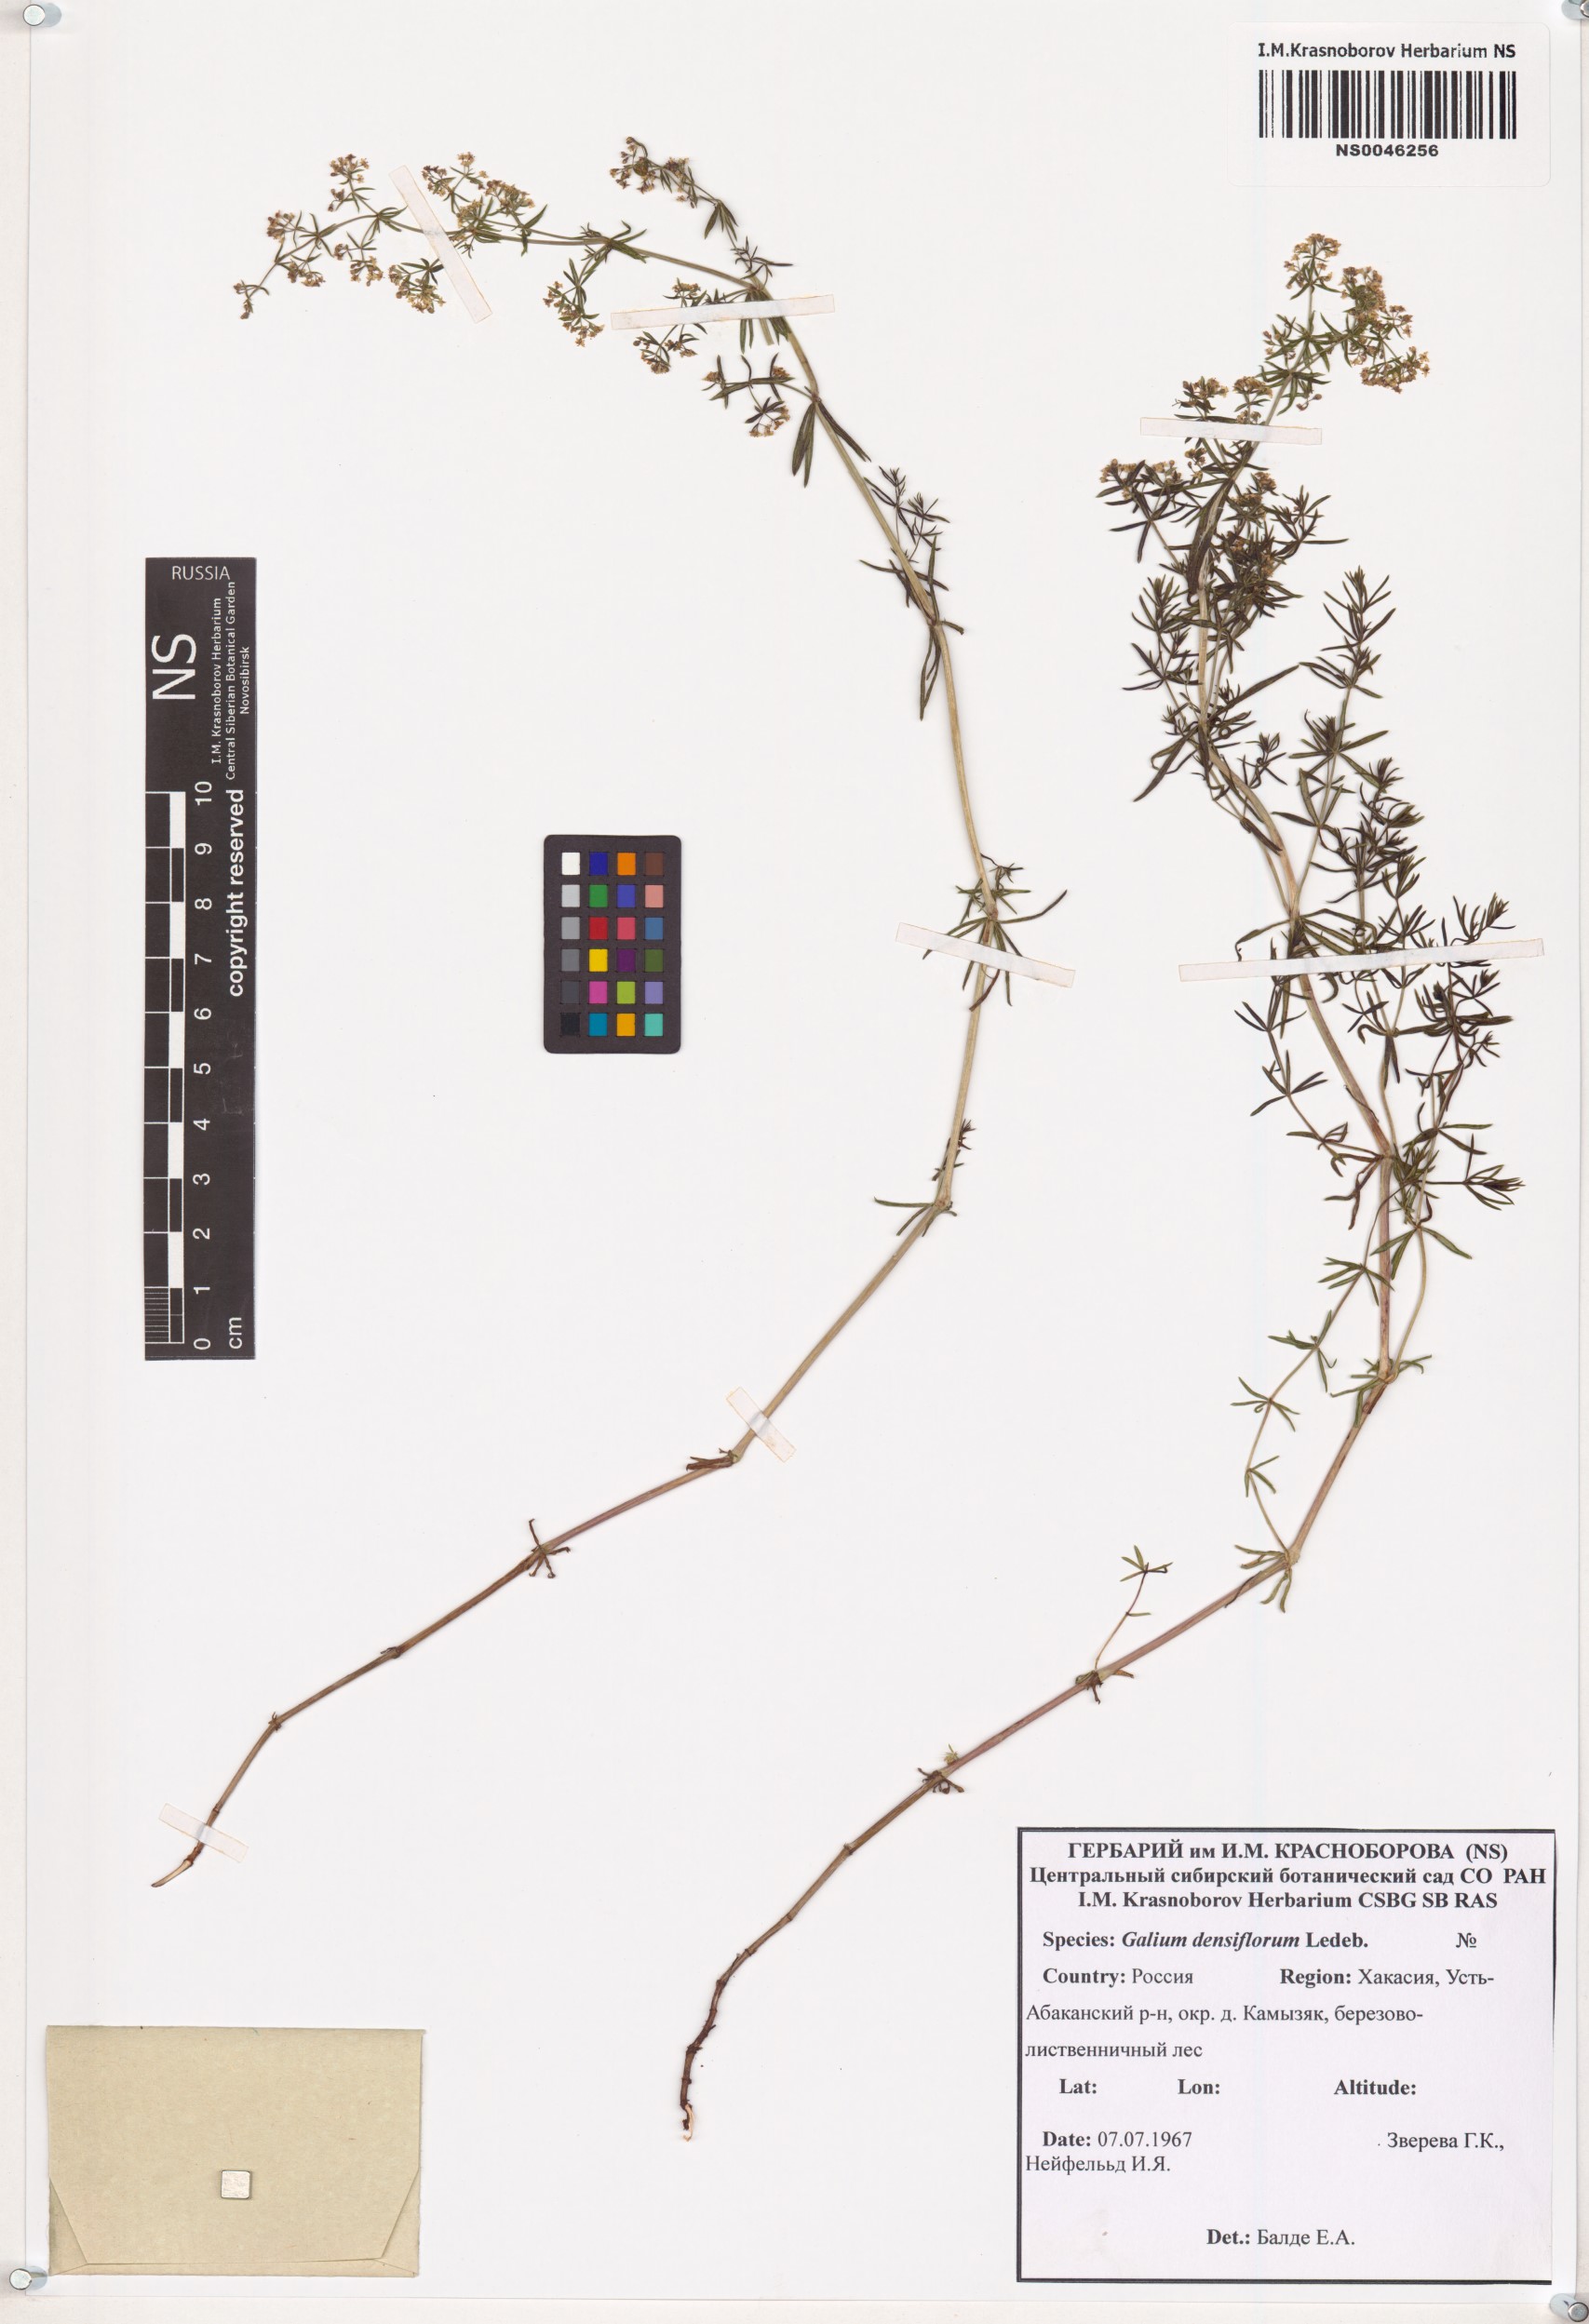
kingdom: Plantae
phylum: Tracheophyta
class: Magnoliopsida
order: Gentianales
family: Rubiaceae
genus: Galium
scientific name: Galium densiflorum
